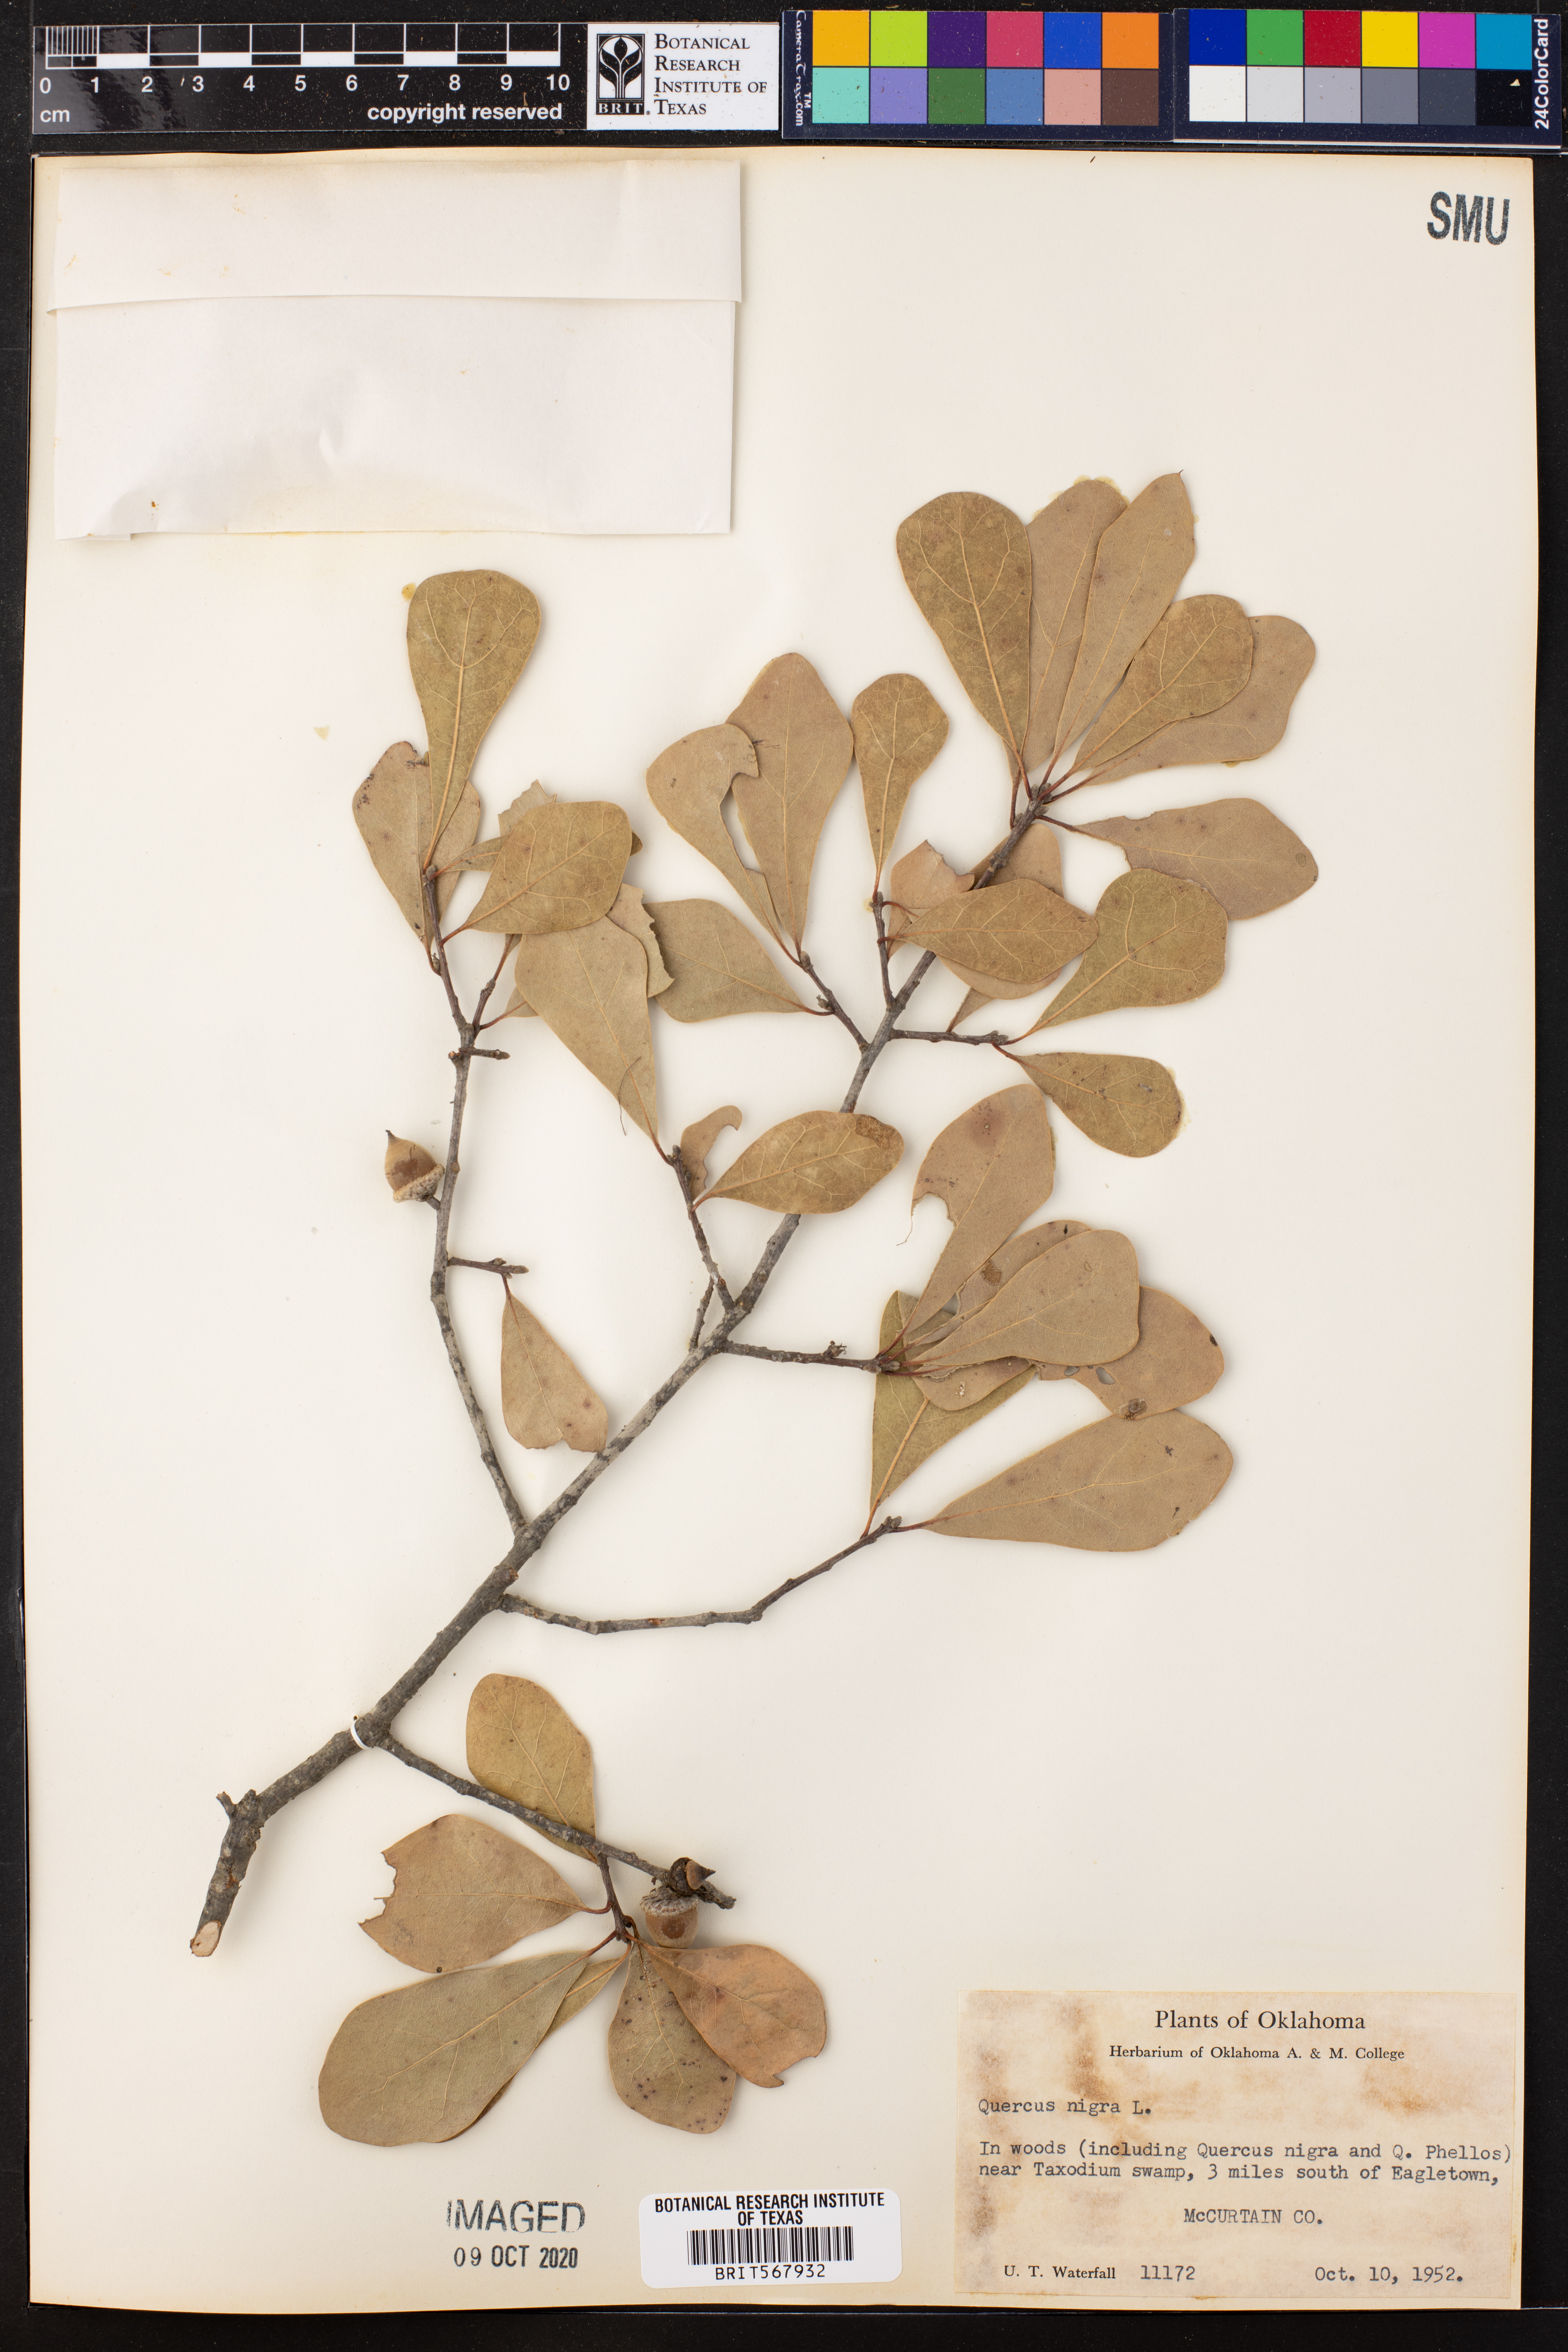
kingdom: Plantae
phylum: Tracheophyta
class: Magnoliopsida
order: Fagales
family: Fagaceae
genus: Quercus
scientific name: Quercus nigra
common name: Water oak
